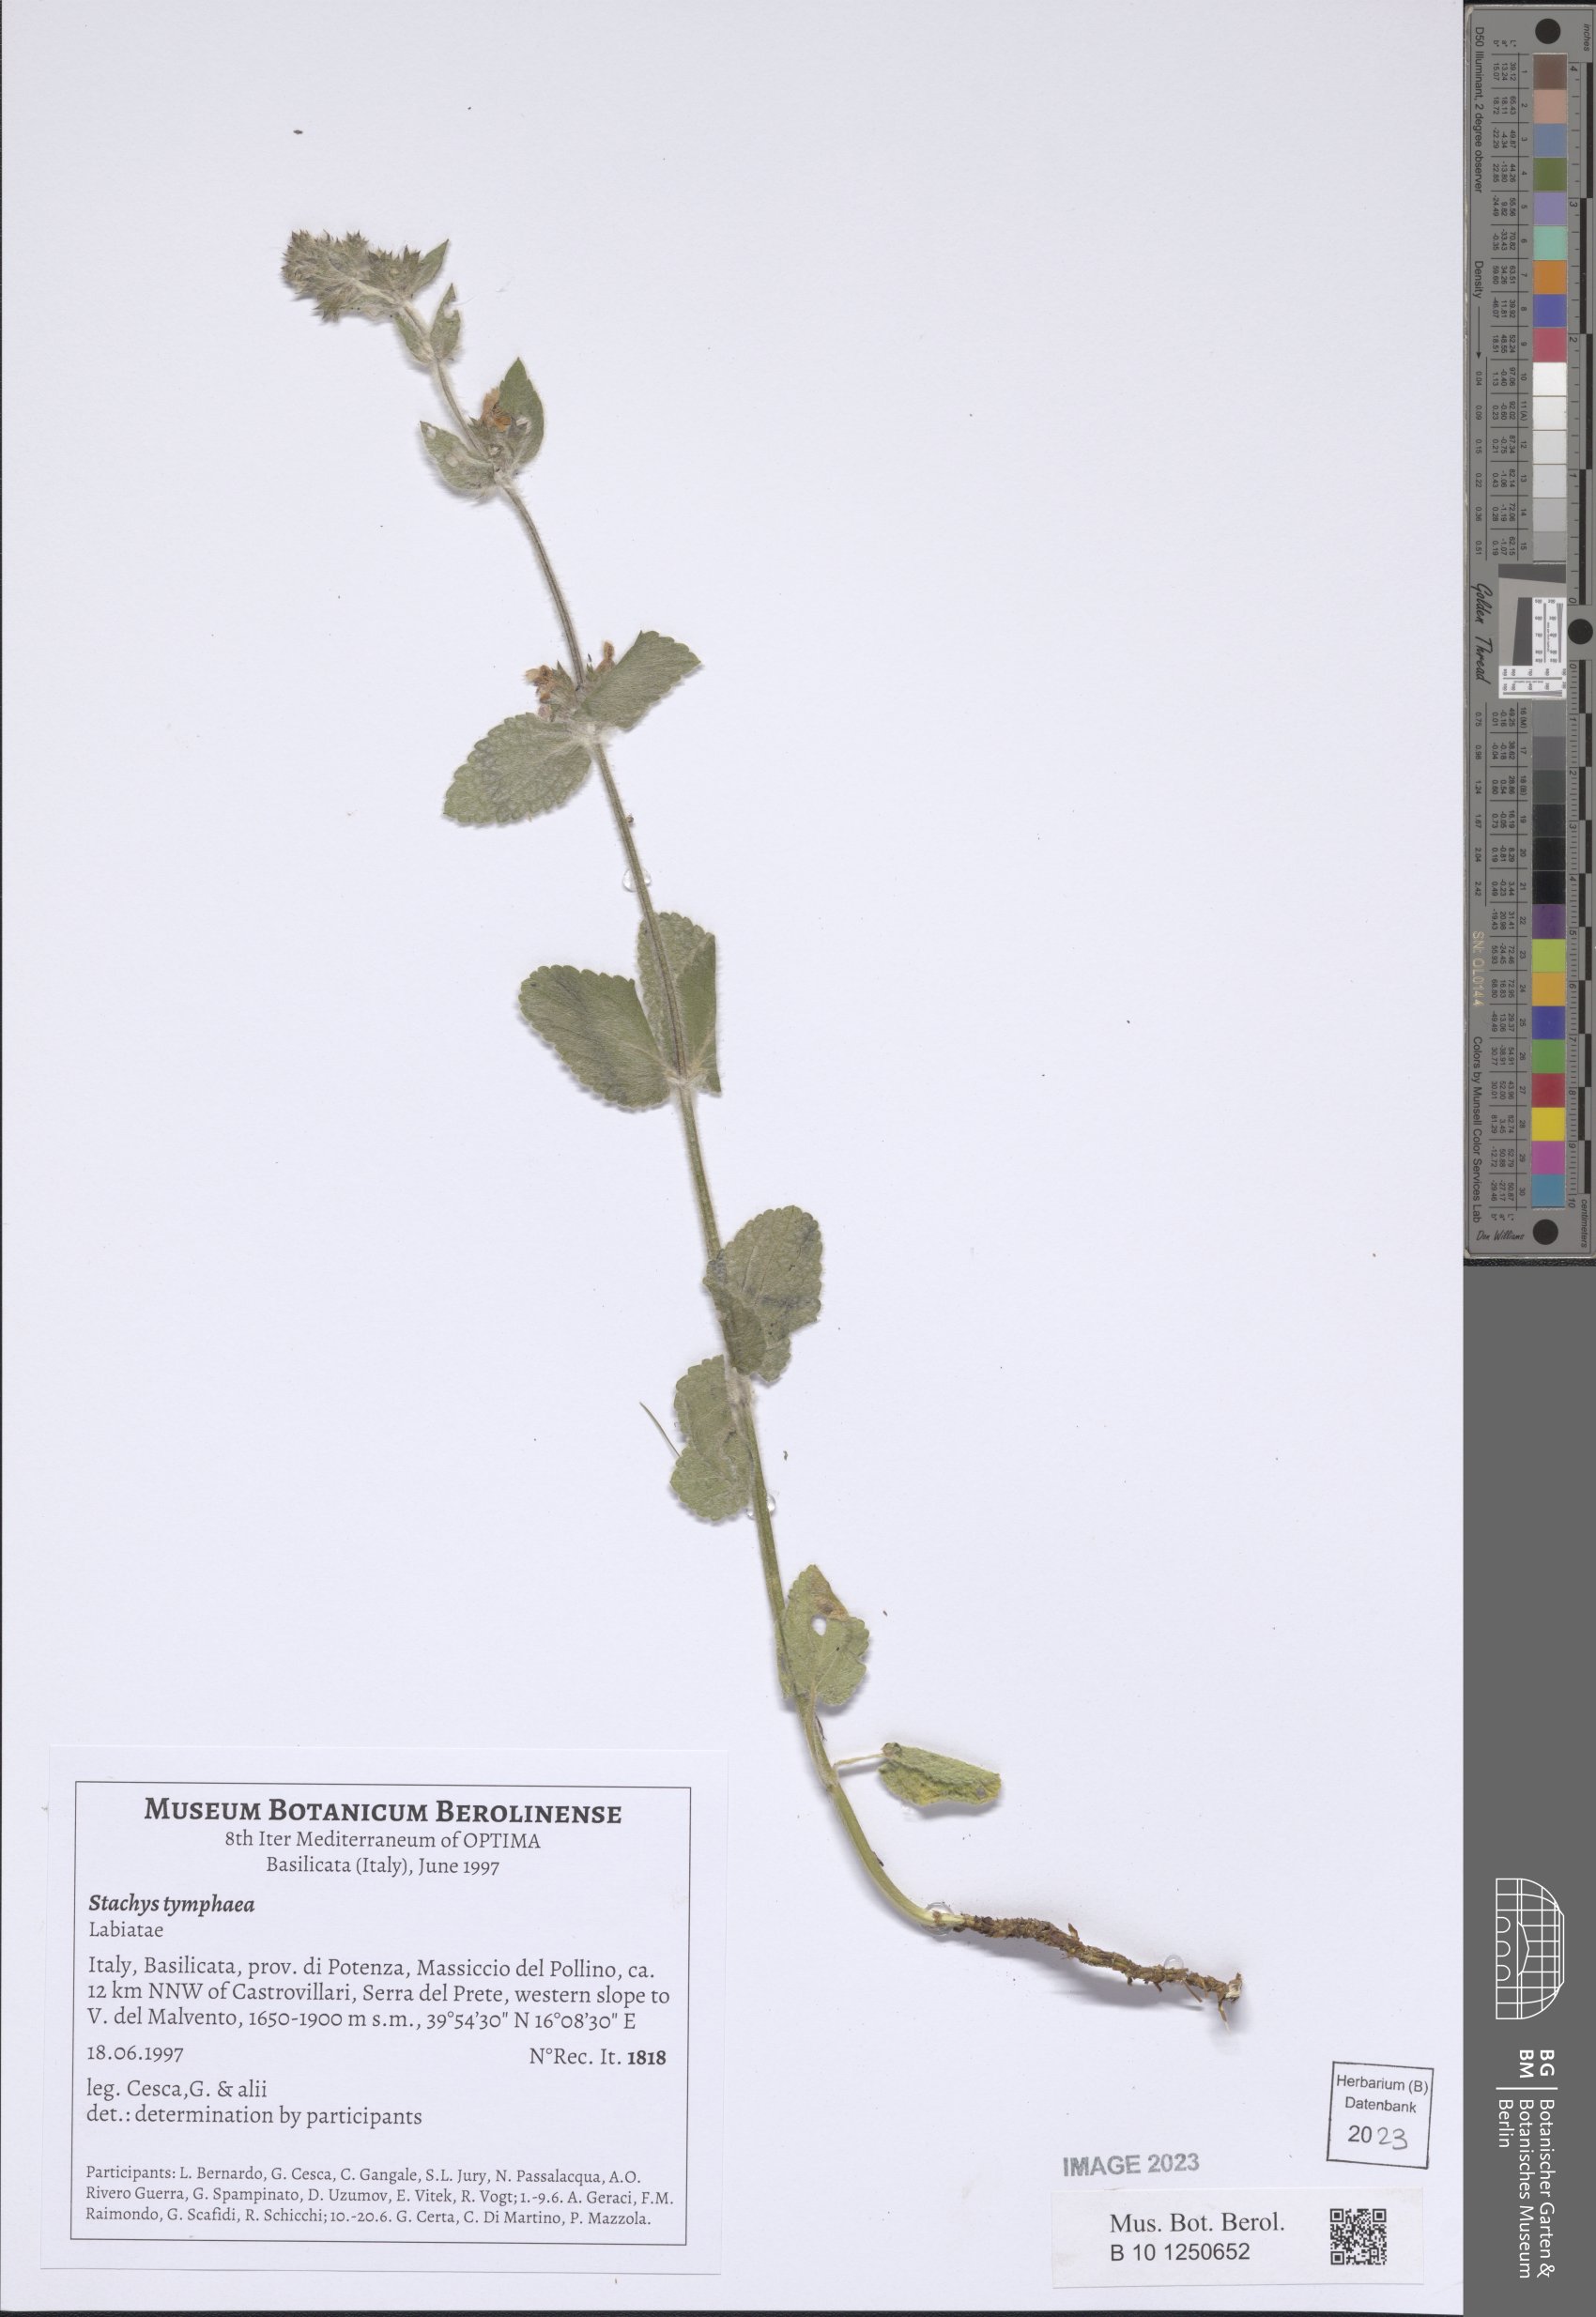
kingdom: Plantae
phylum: Tracheophyta
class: Magnoliopsida
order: Lamiales
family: Lamiaceae
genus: Stachys
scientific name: Stachys tymphaea
